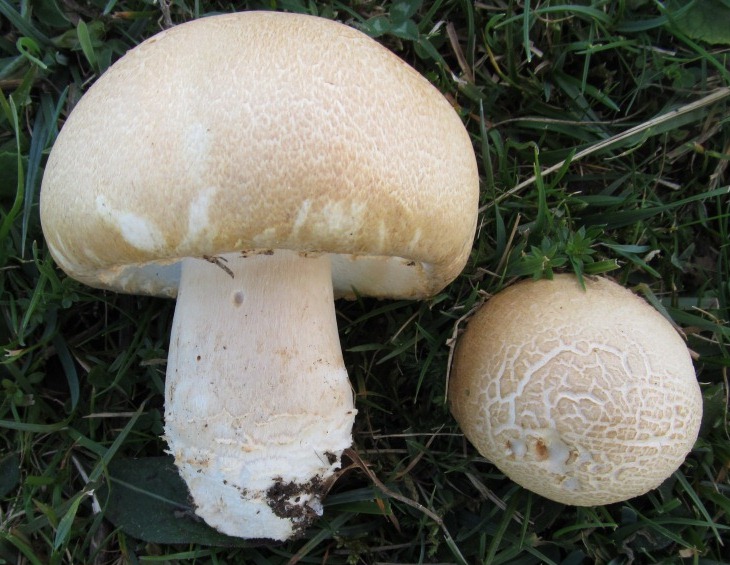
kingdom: Fungi
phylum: Basidiomycota
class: Agaricomycetes
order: Agaricales
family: Agaricaceae
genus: Agaricus
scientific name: Agaricus crocodilinus
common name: landsby-champignon
